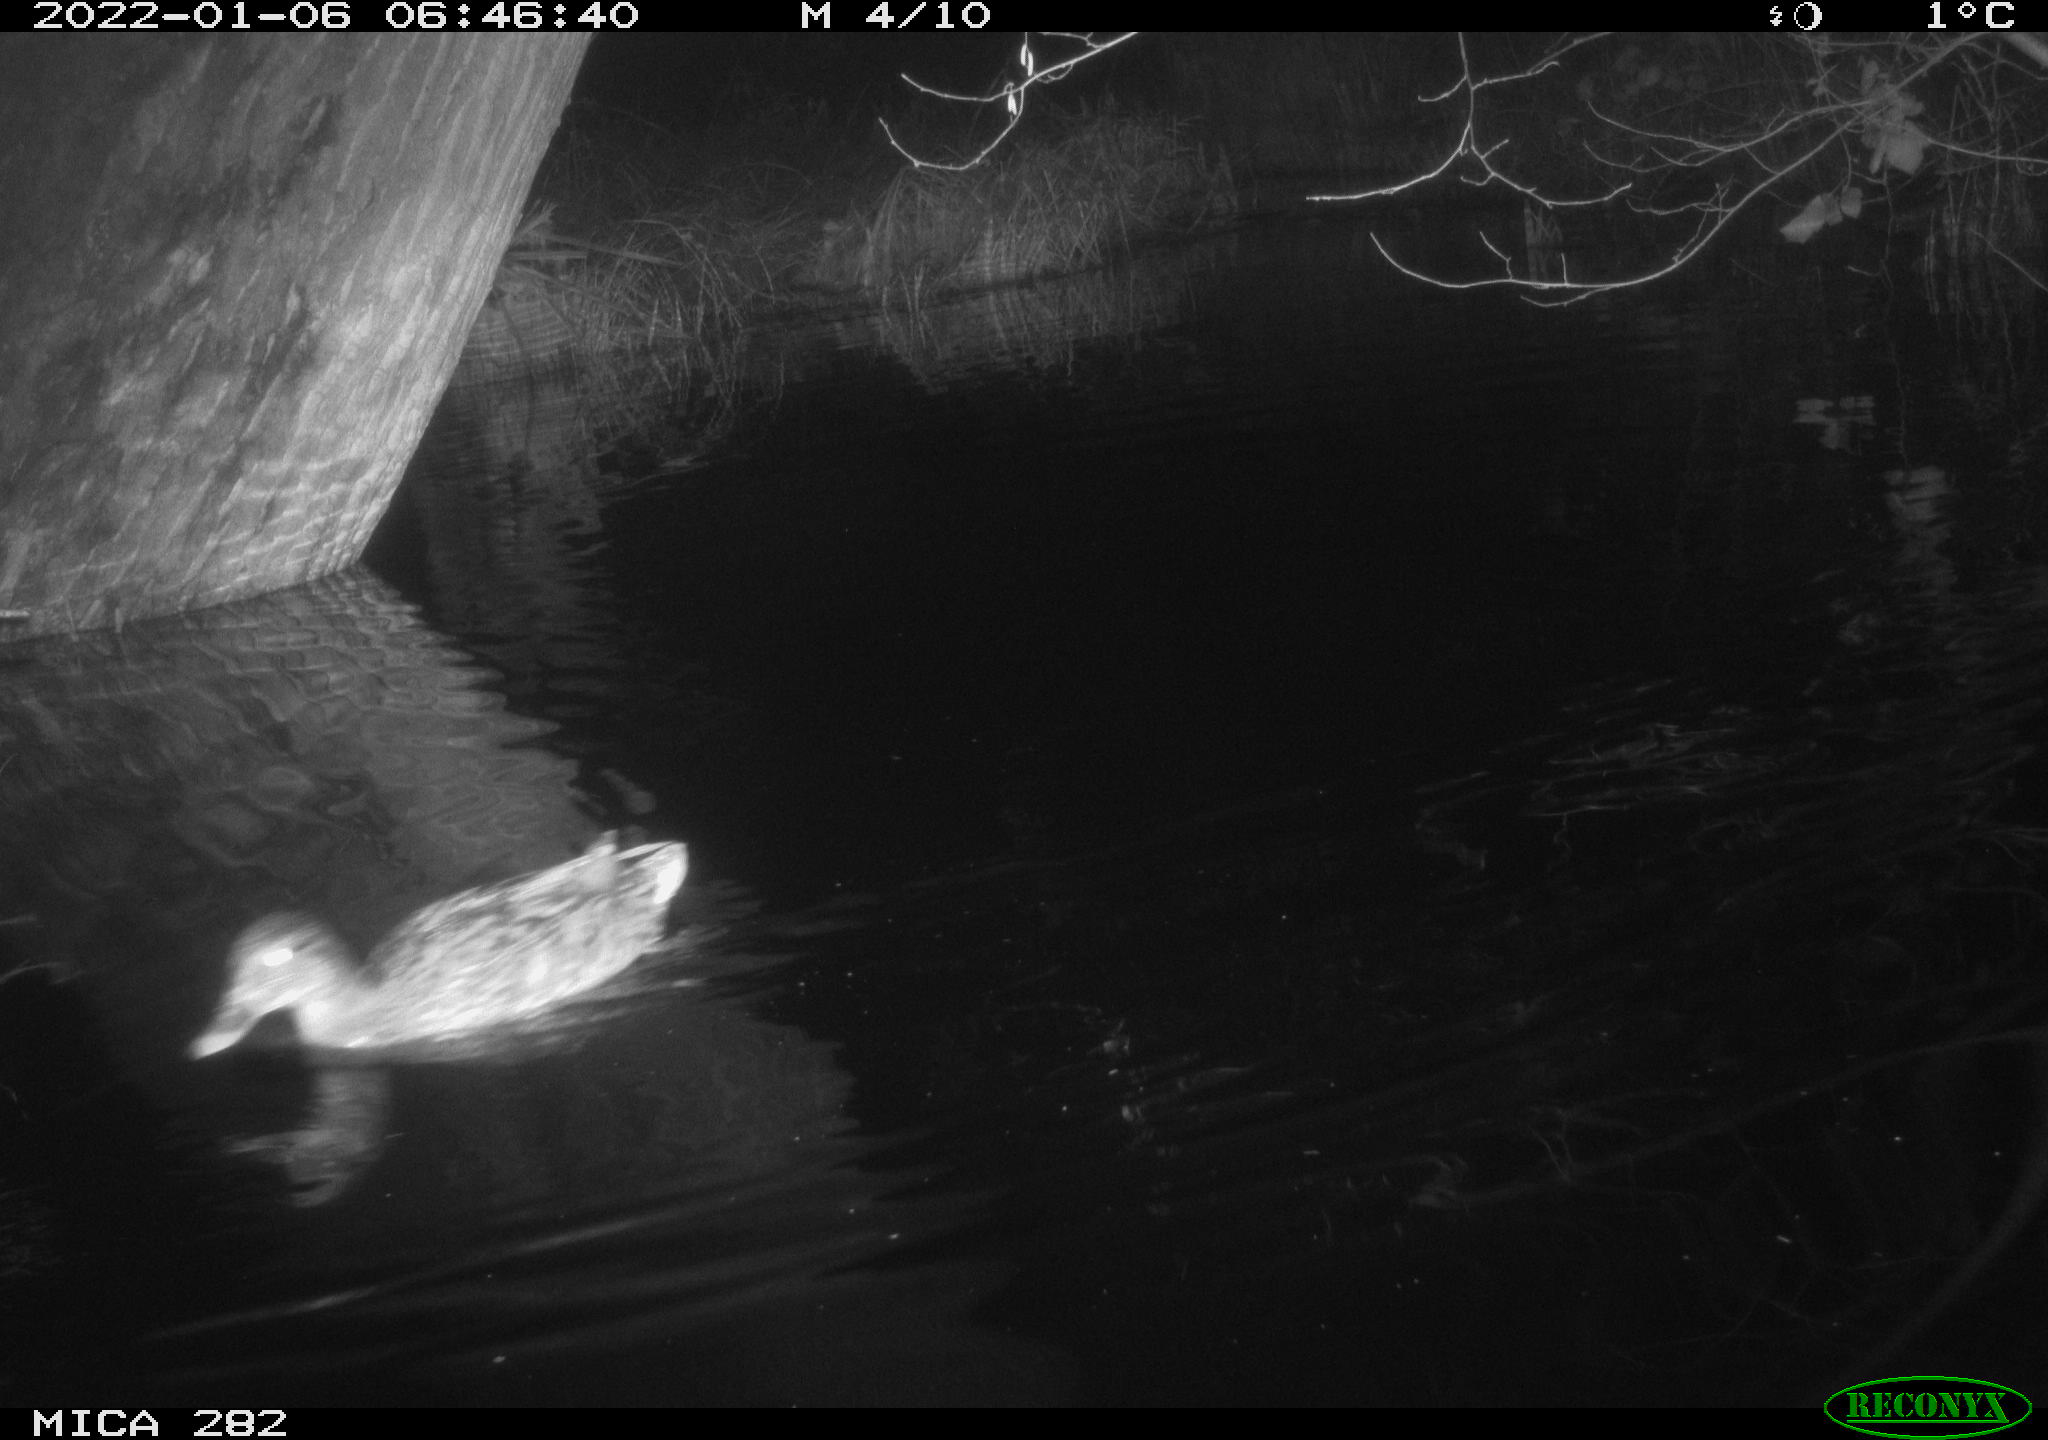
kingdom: Animalia
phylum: Chordata
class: Aves
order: Anseriformes
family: Anatidae
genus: Mareca
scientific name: Mareca strepera
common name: Gadwall
